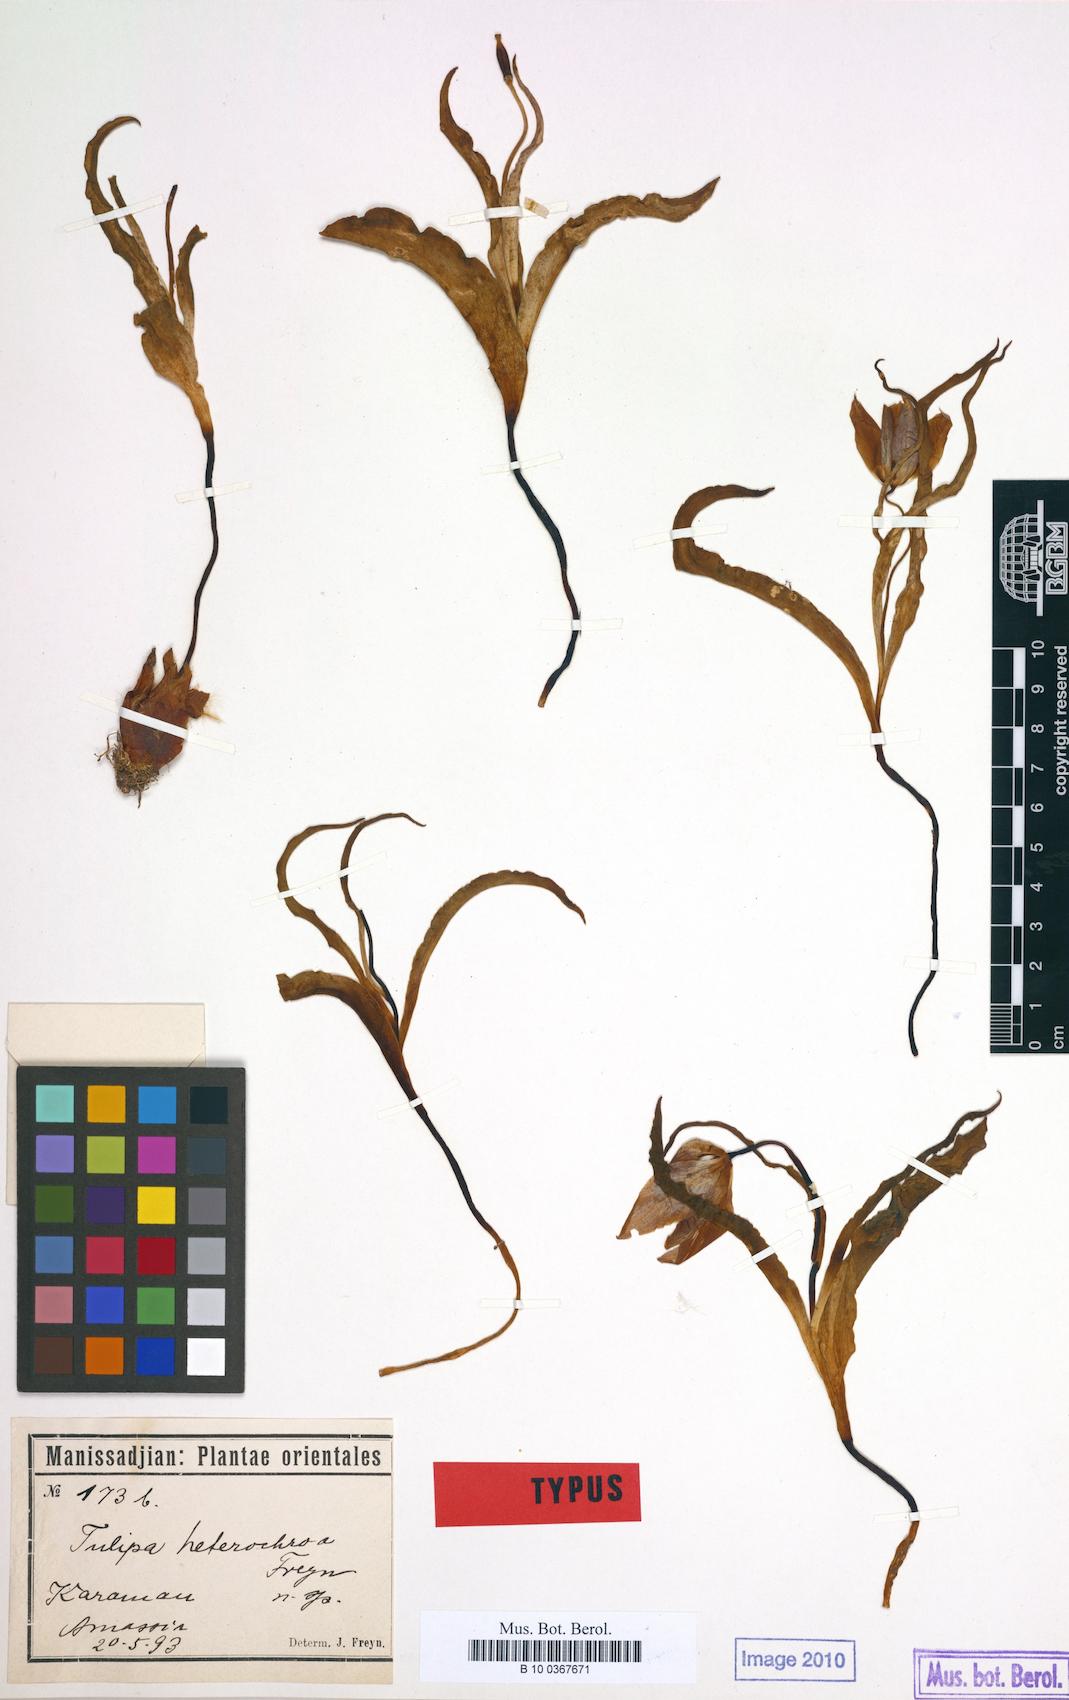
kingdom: Plantae
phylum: Tracheophyta
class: Liliopsida
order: Liliales
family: Liliaceae
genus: Tulipa
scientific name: Tulipa foliosa
